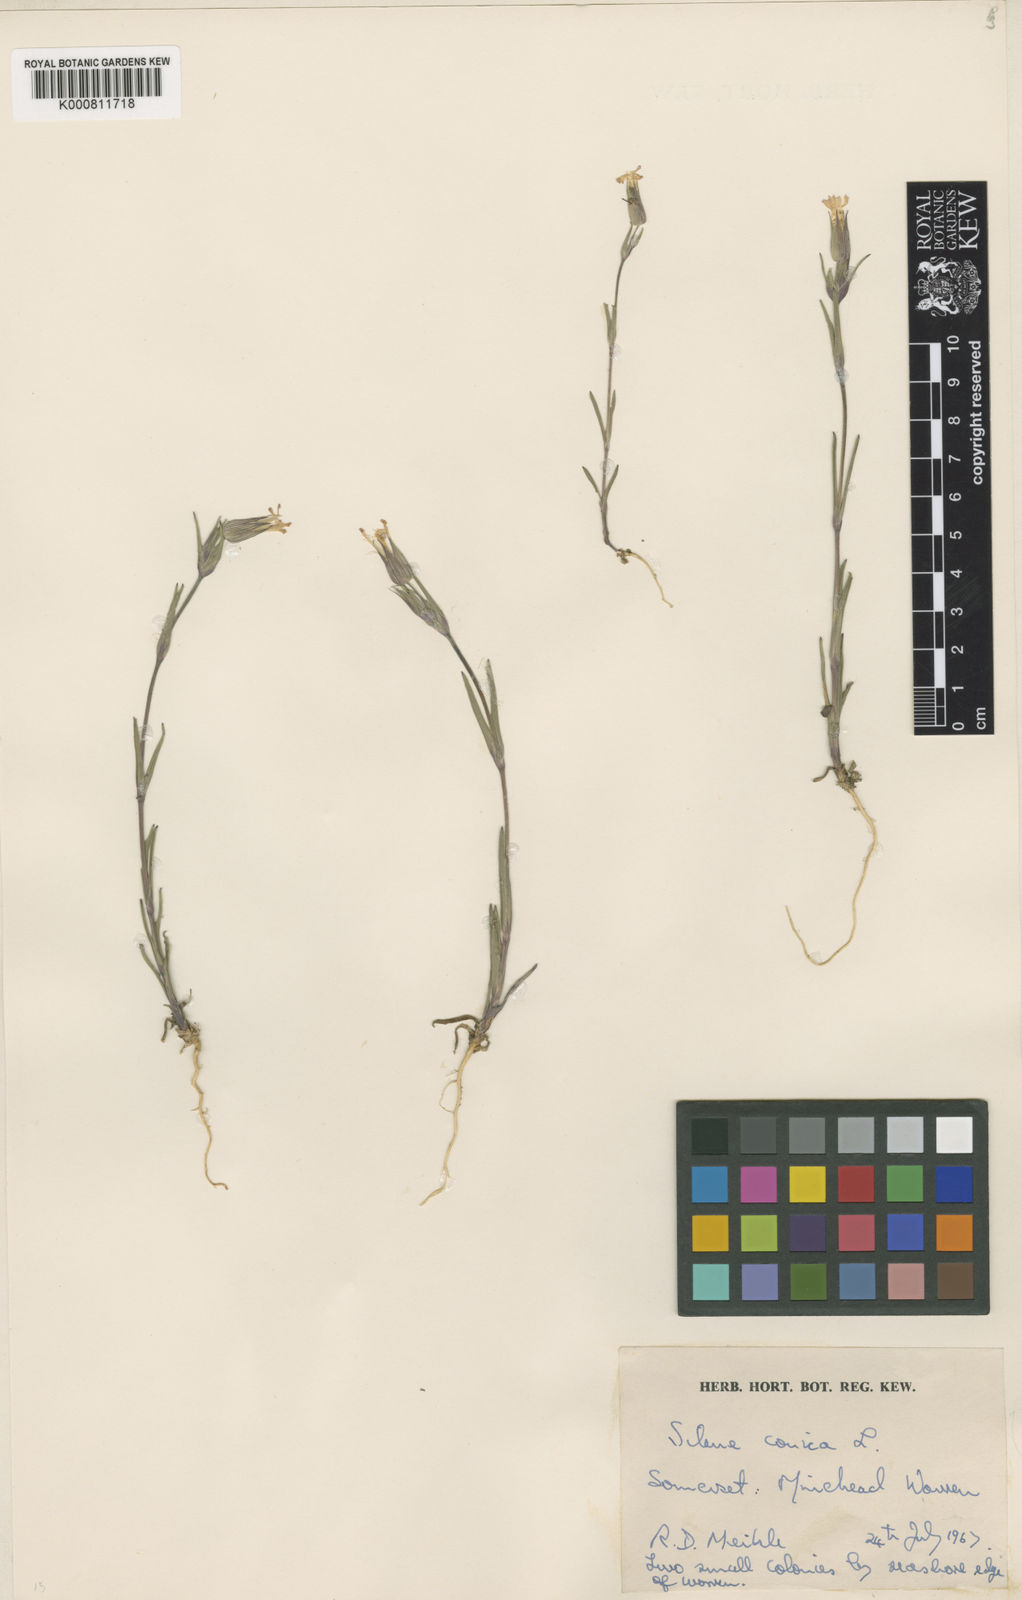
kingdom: Plantae
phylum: Tracheophyta
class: Magnoliopsida
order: Caryophyllales
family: Caryophyllaceae
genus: Silene
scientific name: Silene conica
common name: Sand catchfly
